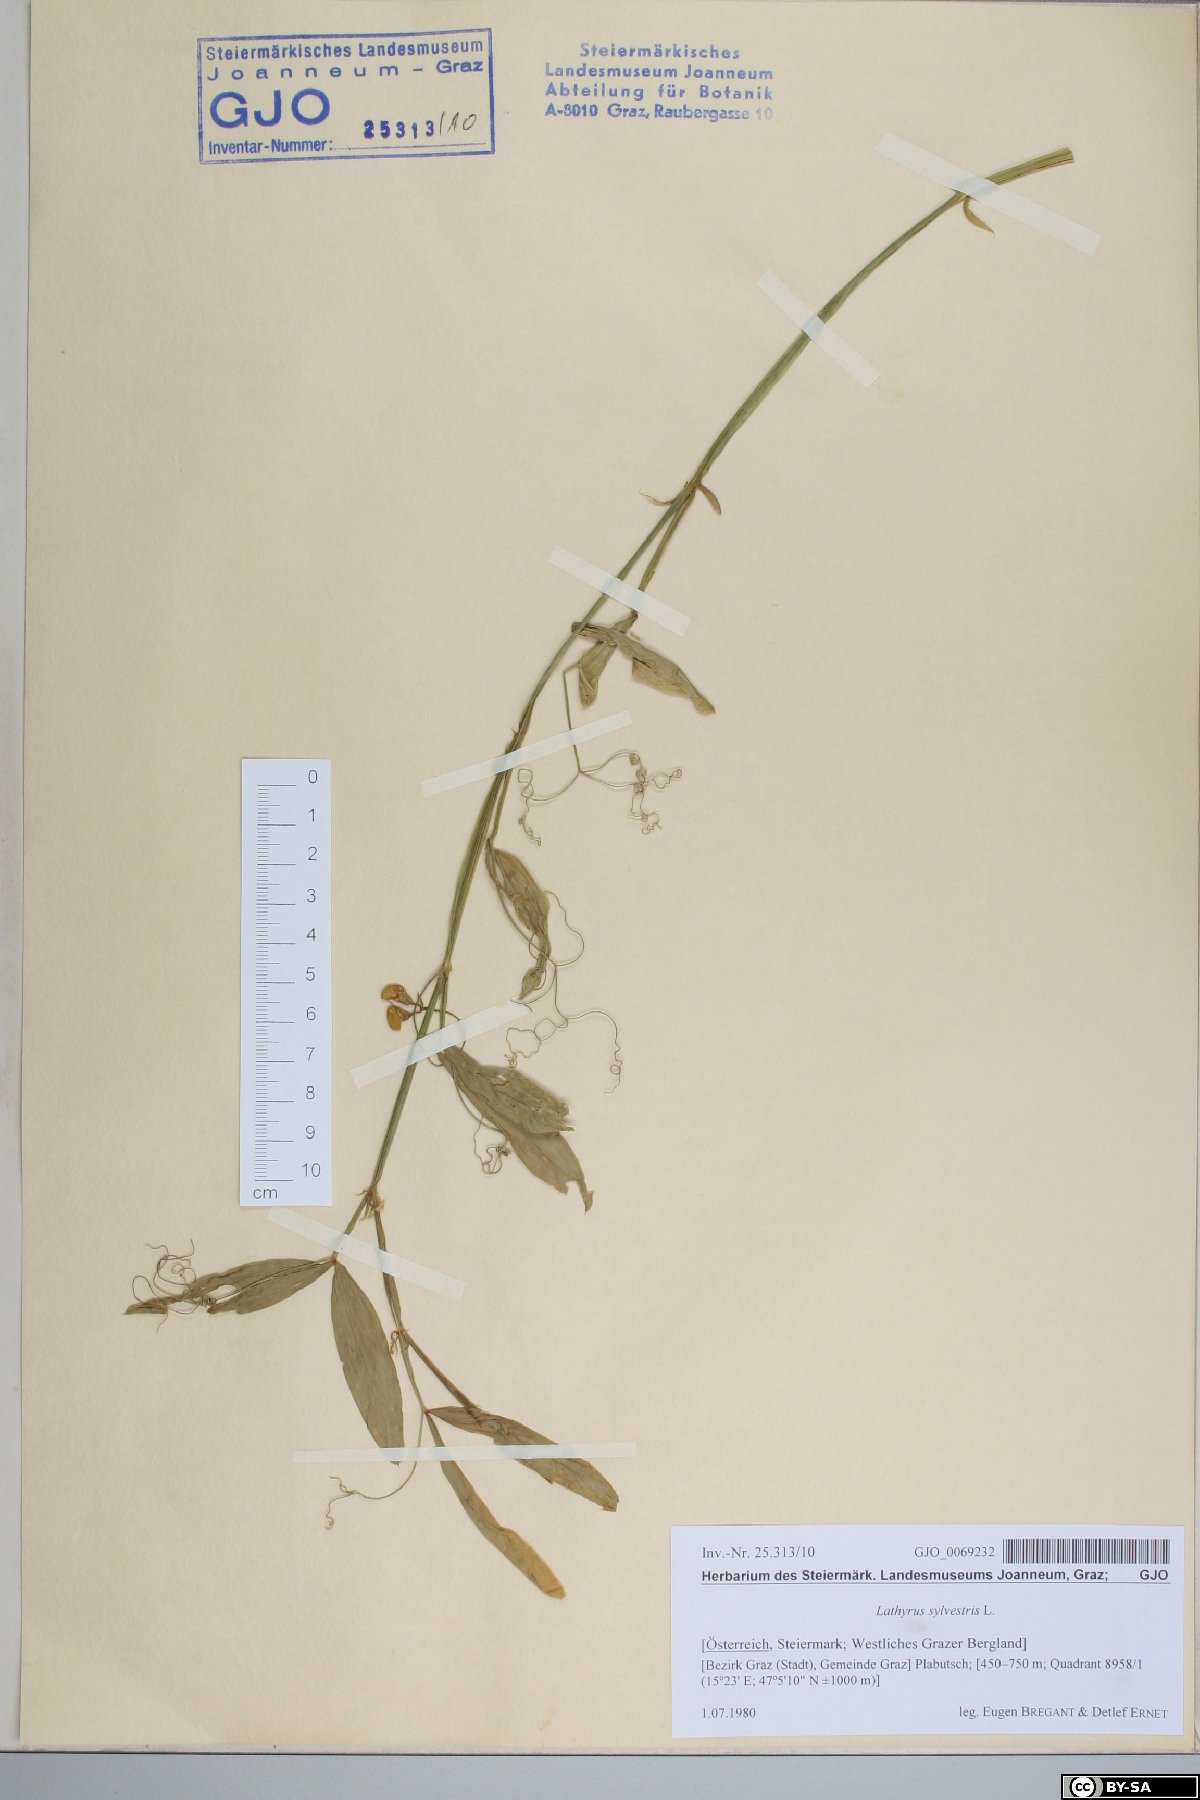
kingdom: Plantae
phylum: Tracheophyta
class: Magnoliopsida
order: Fabales
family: Fabaceae
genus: Lathyrus
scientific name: Lathyrus sylvestris
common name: Flat pea
